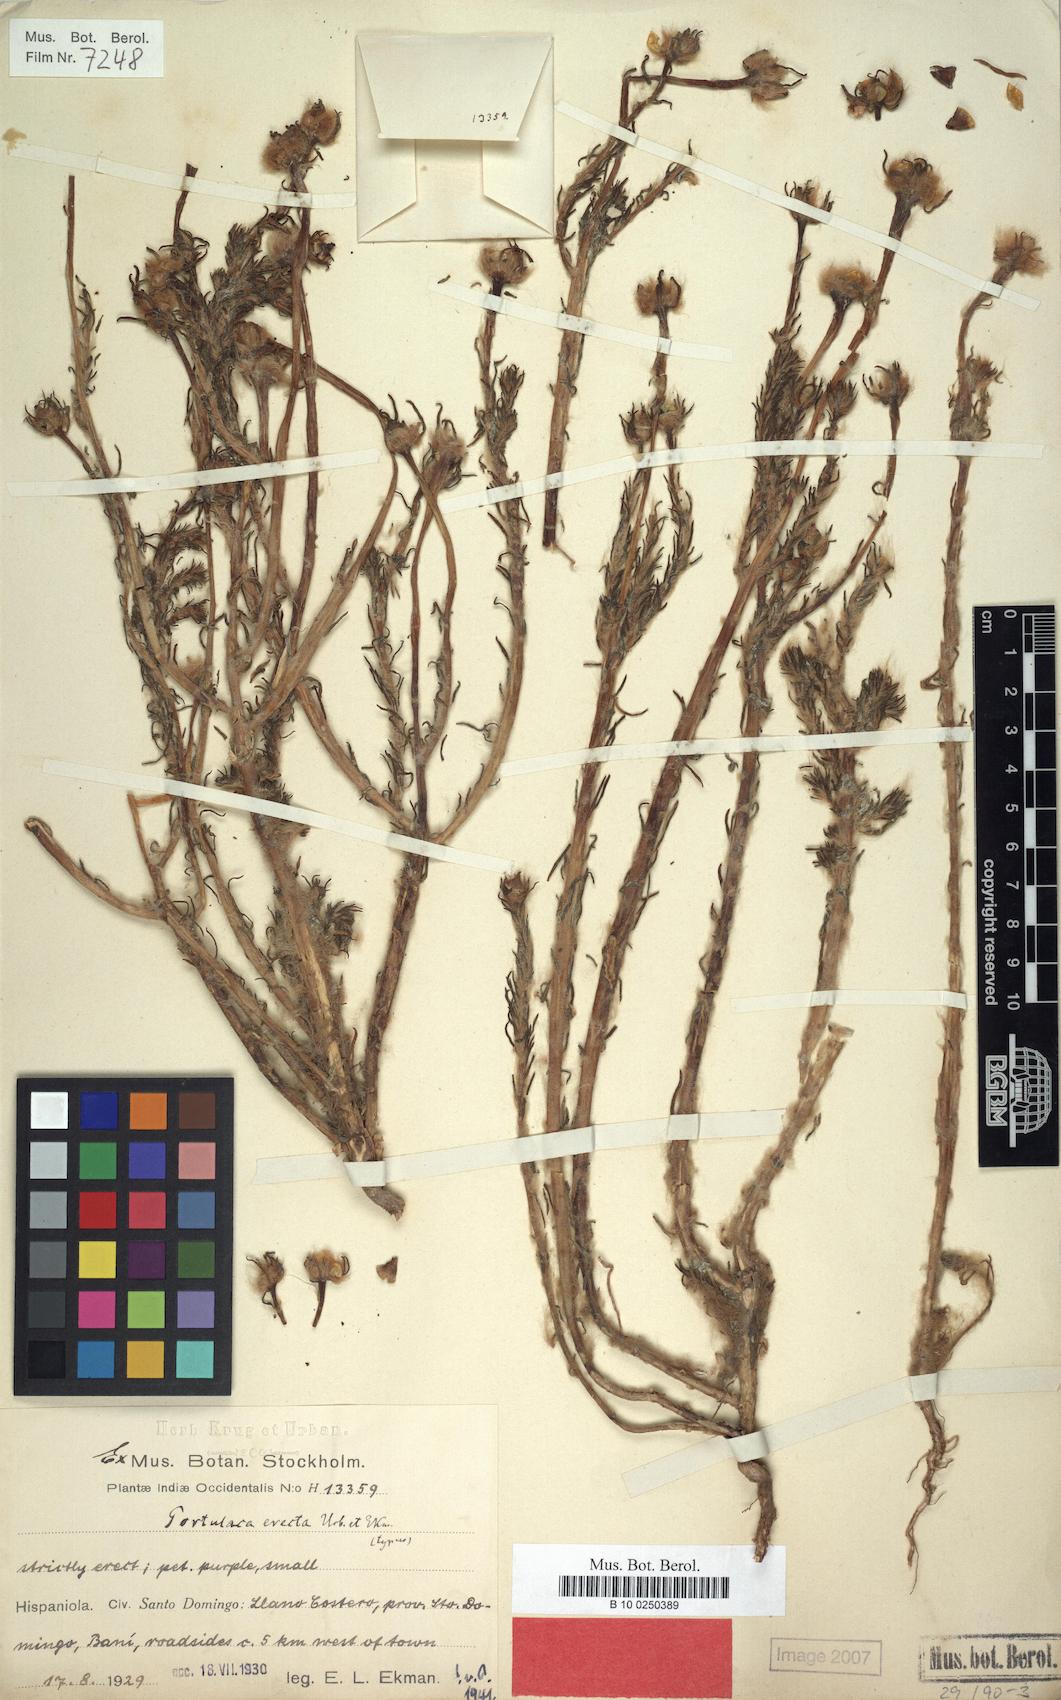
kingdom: Plantae
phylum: Tracheophyta
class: Magnoliopsida
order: Caryophyllales
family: Portulacaceae
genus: Portulaca
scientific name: Portulaca elatior
